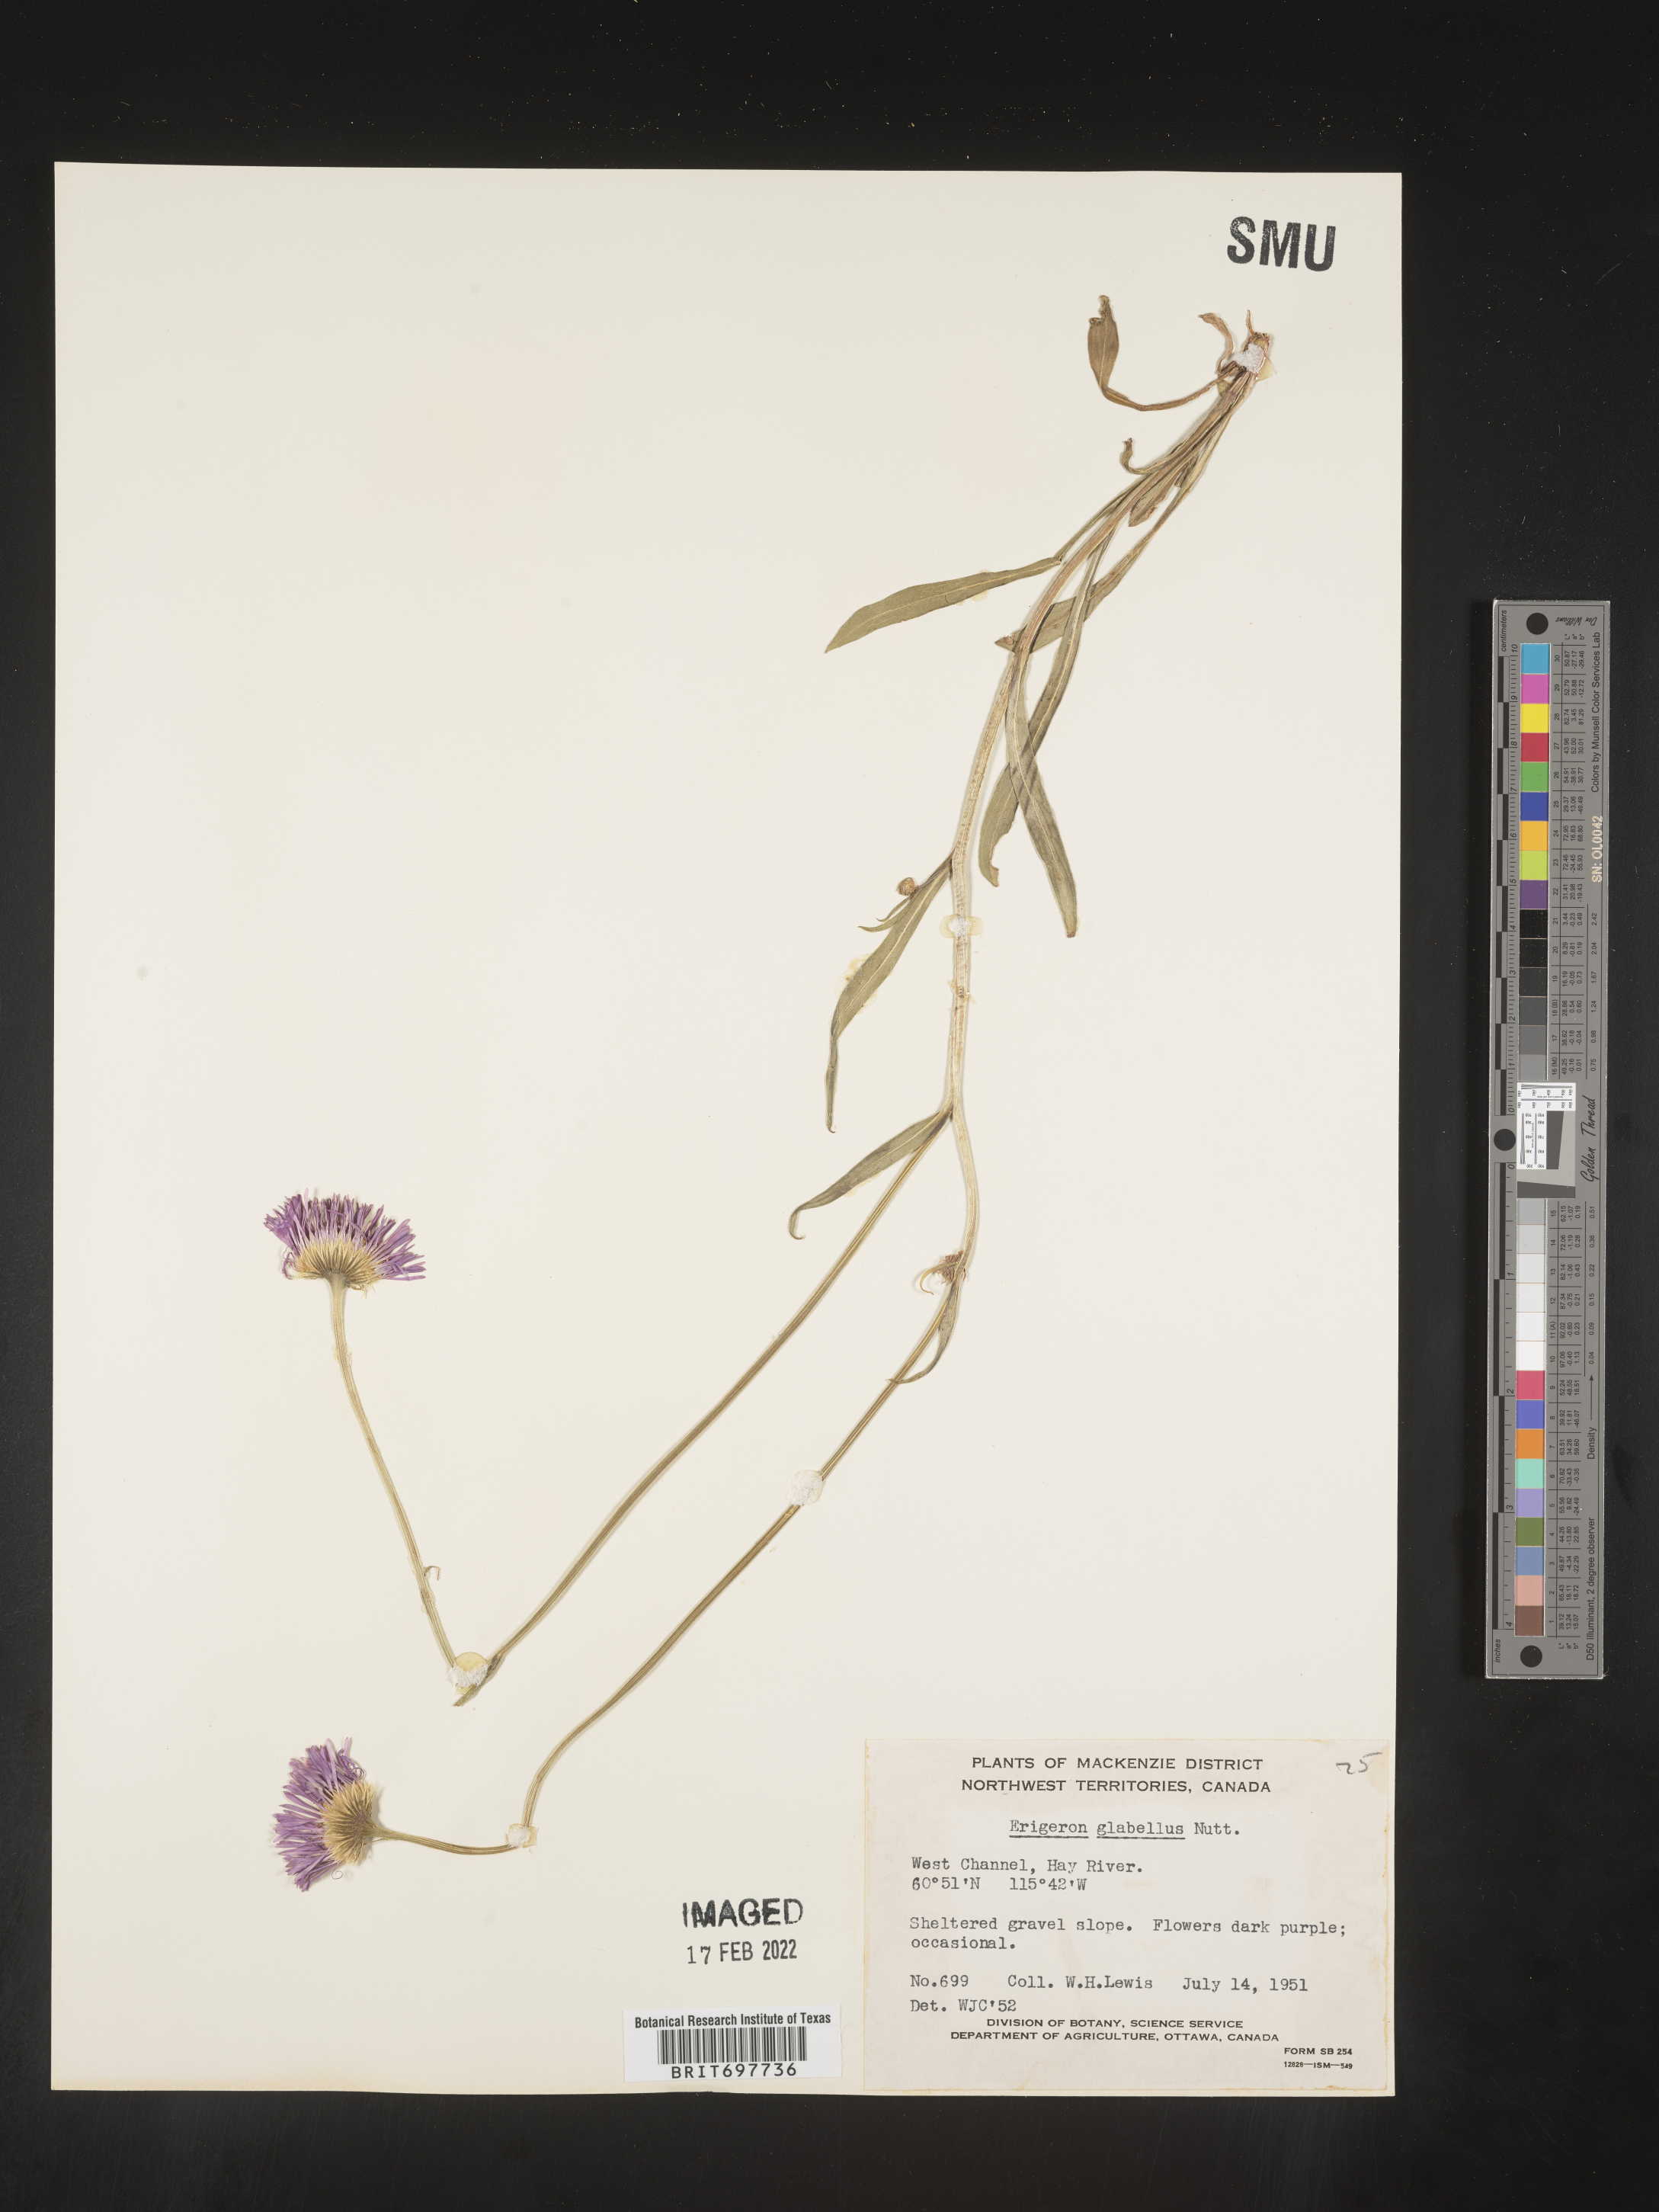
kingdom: Plantae
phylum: Tracheophyta
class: Magnoliopsida
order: Asterales
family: Asteraceae
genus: Erigeron
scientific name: Erigeron glabellus
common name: Smooth fleabane
